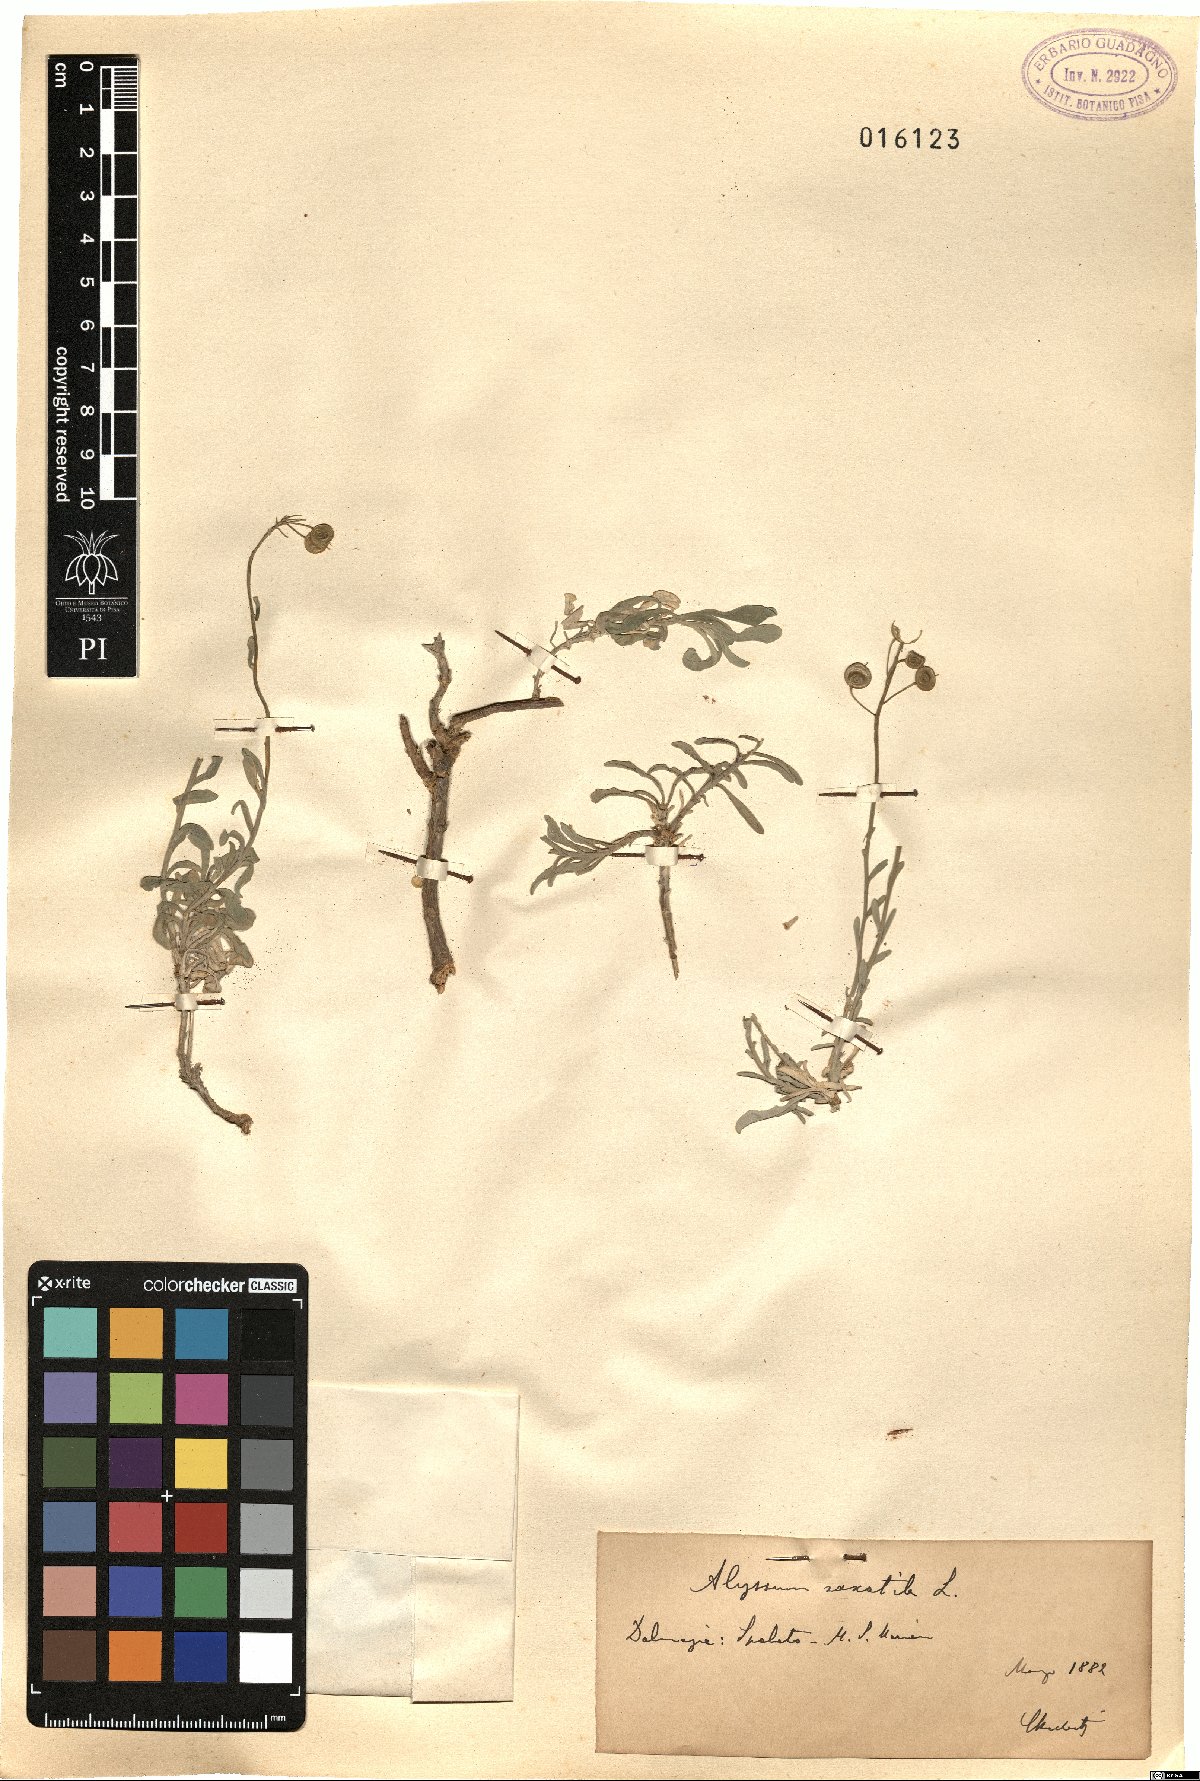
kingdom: Plantae
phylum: Tracheophyta
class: Magnoliopsida
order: Brassicales
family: Brassicaceae
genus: Aurinia
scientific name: Aurinia saxatilis
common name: Golden-tuft alyssum
